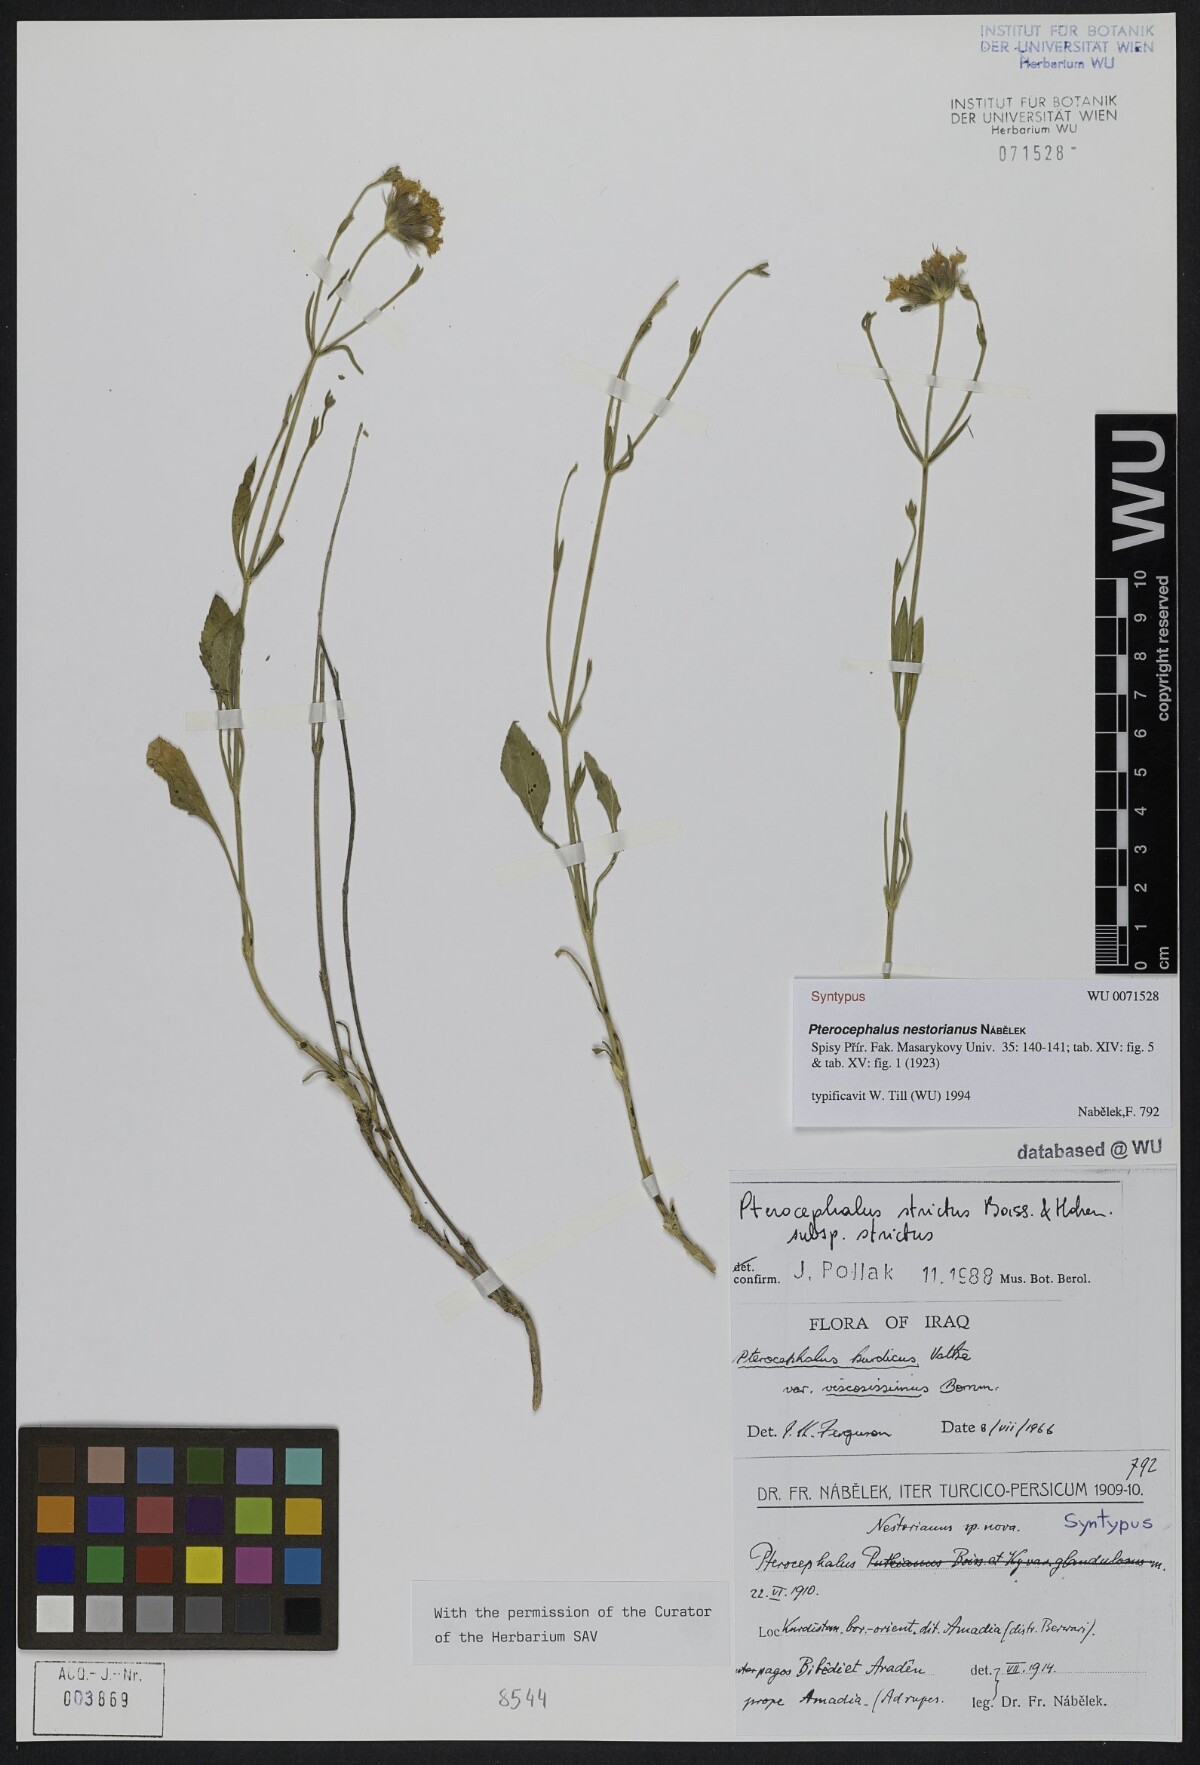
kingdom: Plantae
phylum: Tracheophyta
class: Magnoliopsida
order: Dipsacales
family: Caprifoliaceae
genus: Pterocephalus
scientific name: Pterocephalus nestorianus
